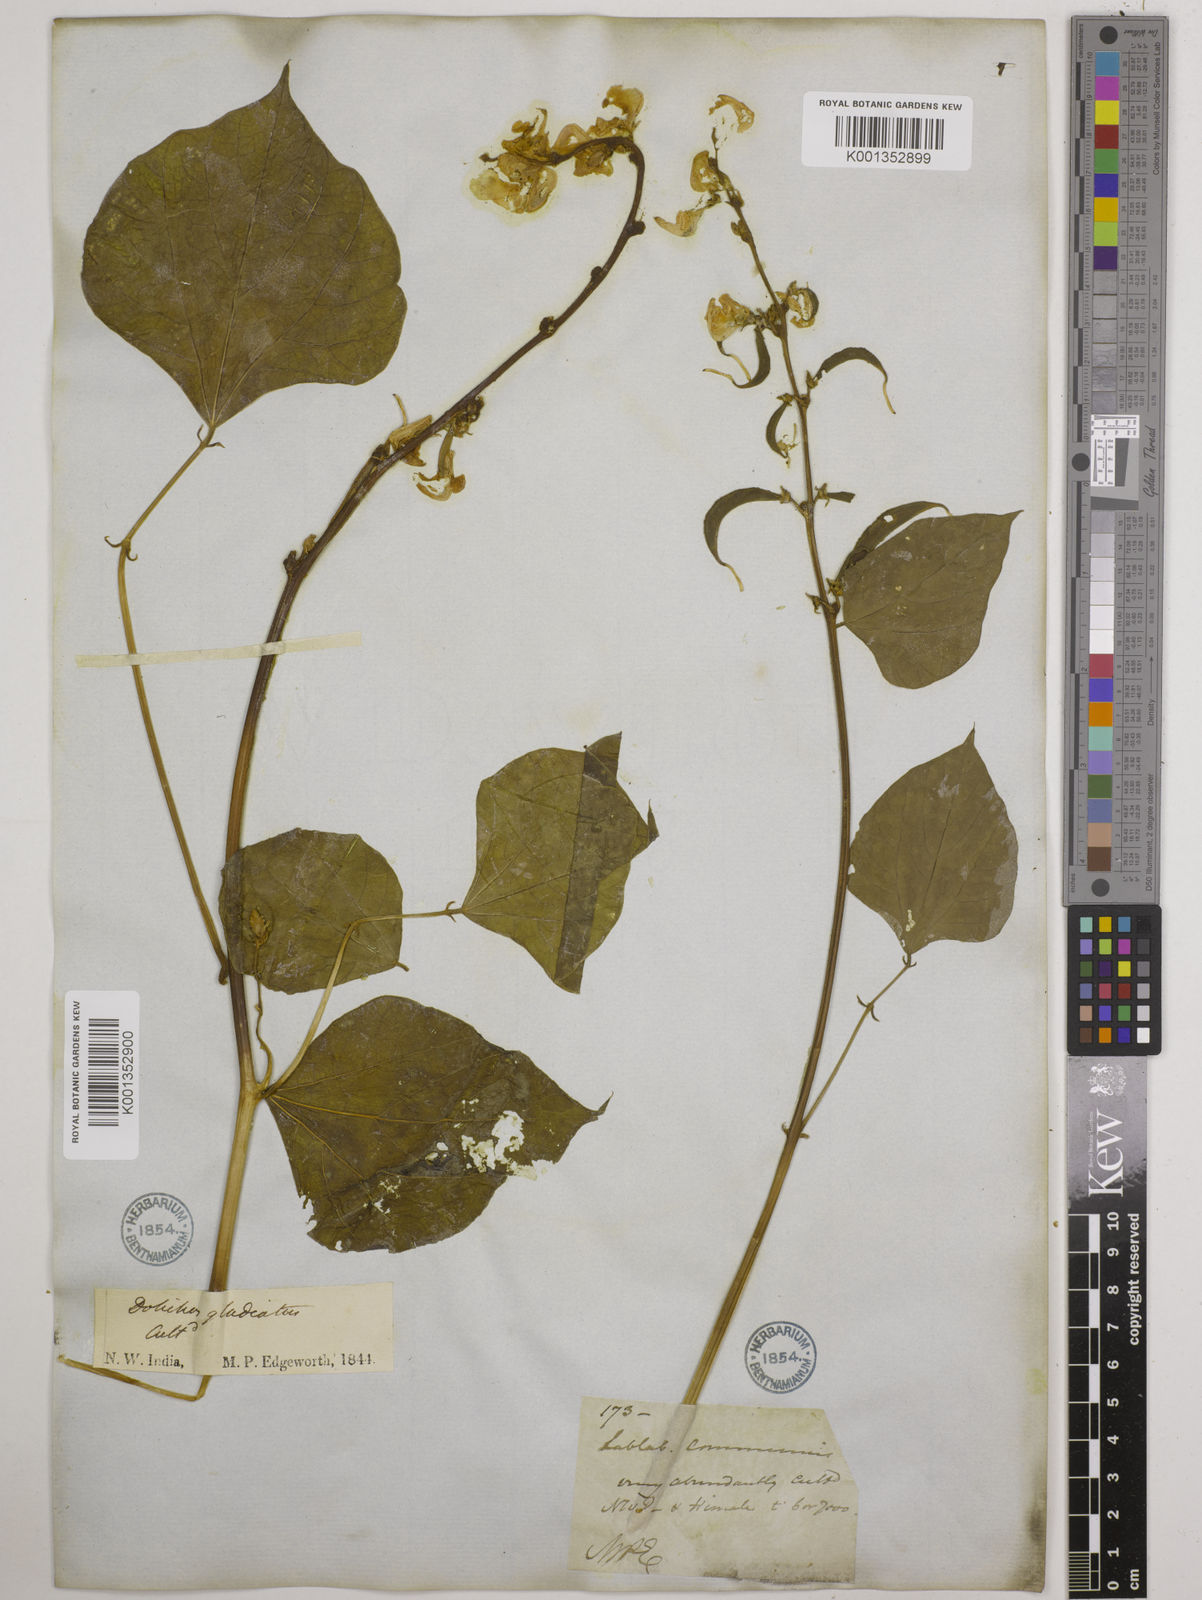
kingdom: Plantae
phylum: Tracheophyta
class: Magnoliopsida
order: Fabales
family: Fabaceae
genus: Lablab
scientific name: Lablab purpureus
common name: Lablab-bean
